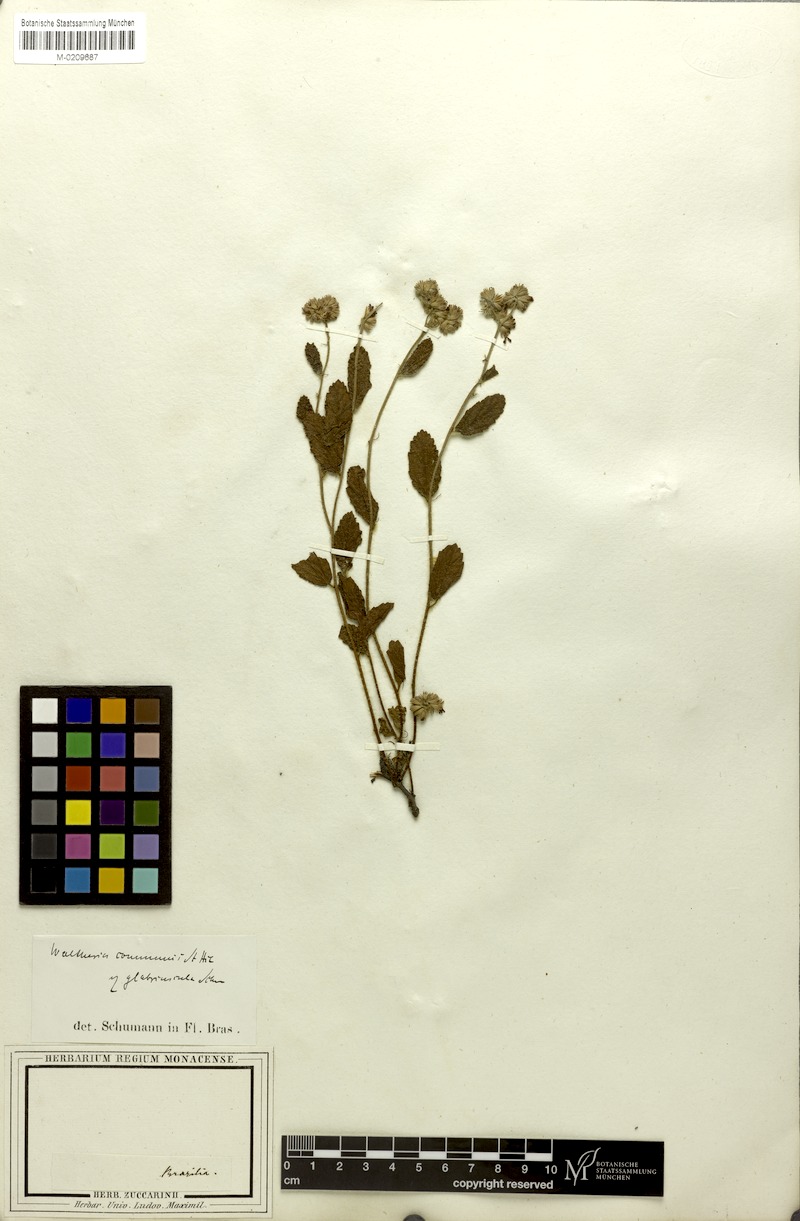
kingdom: Plantae
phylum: Tracheophyta
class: Magnoliopsida
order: Malvales
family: Malvaceae
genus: Waltheria
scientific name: Waltheria communis
